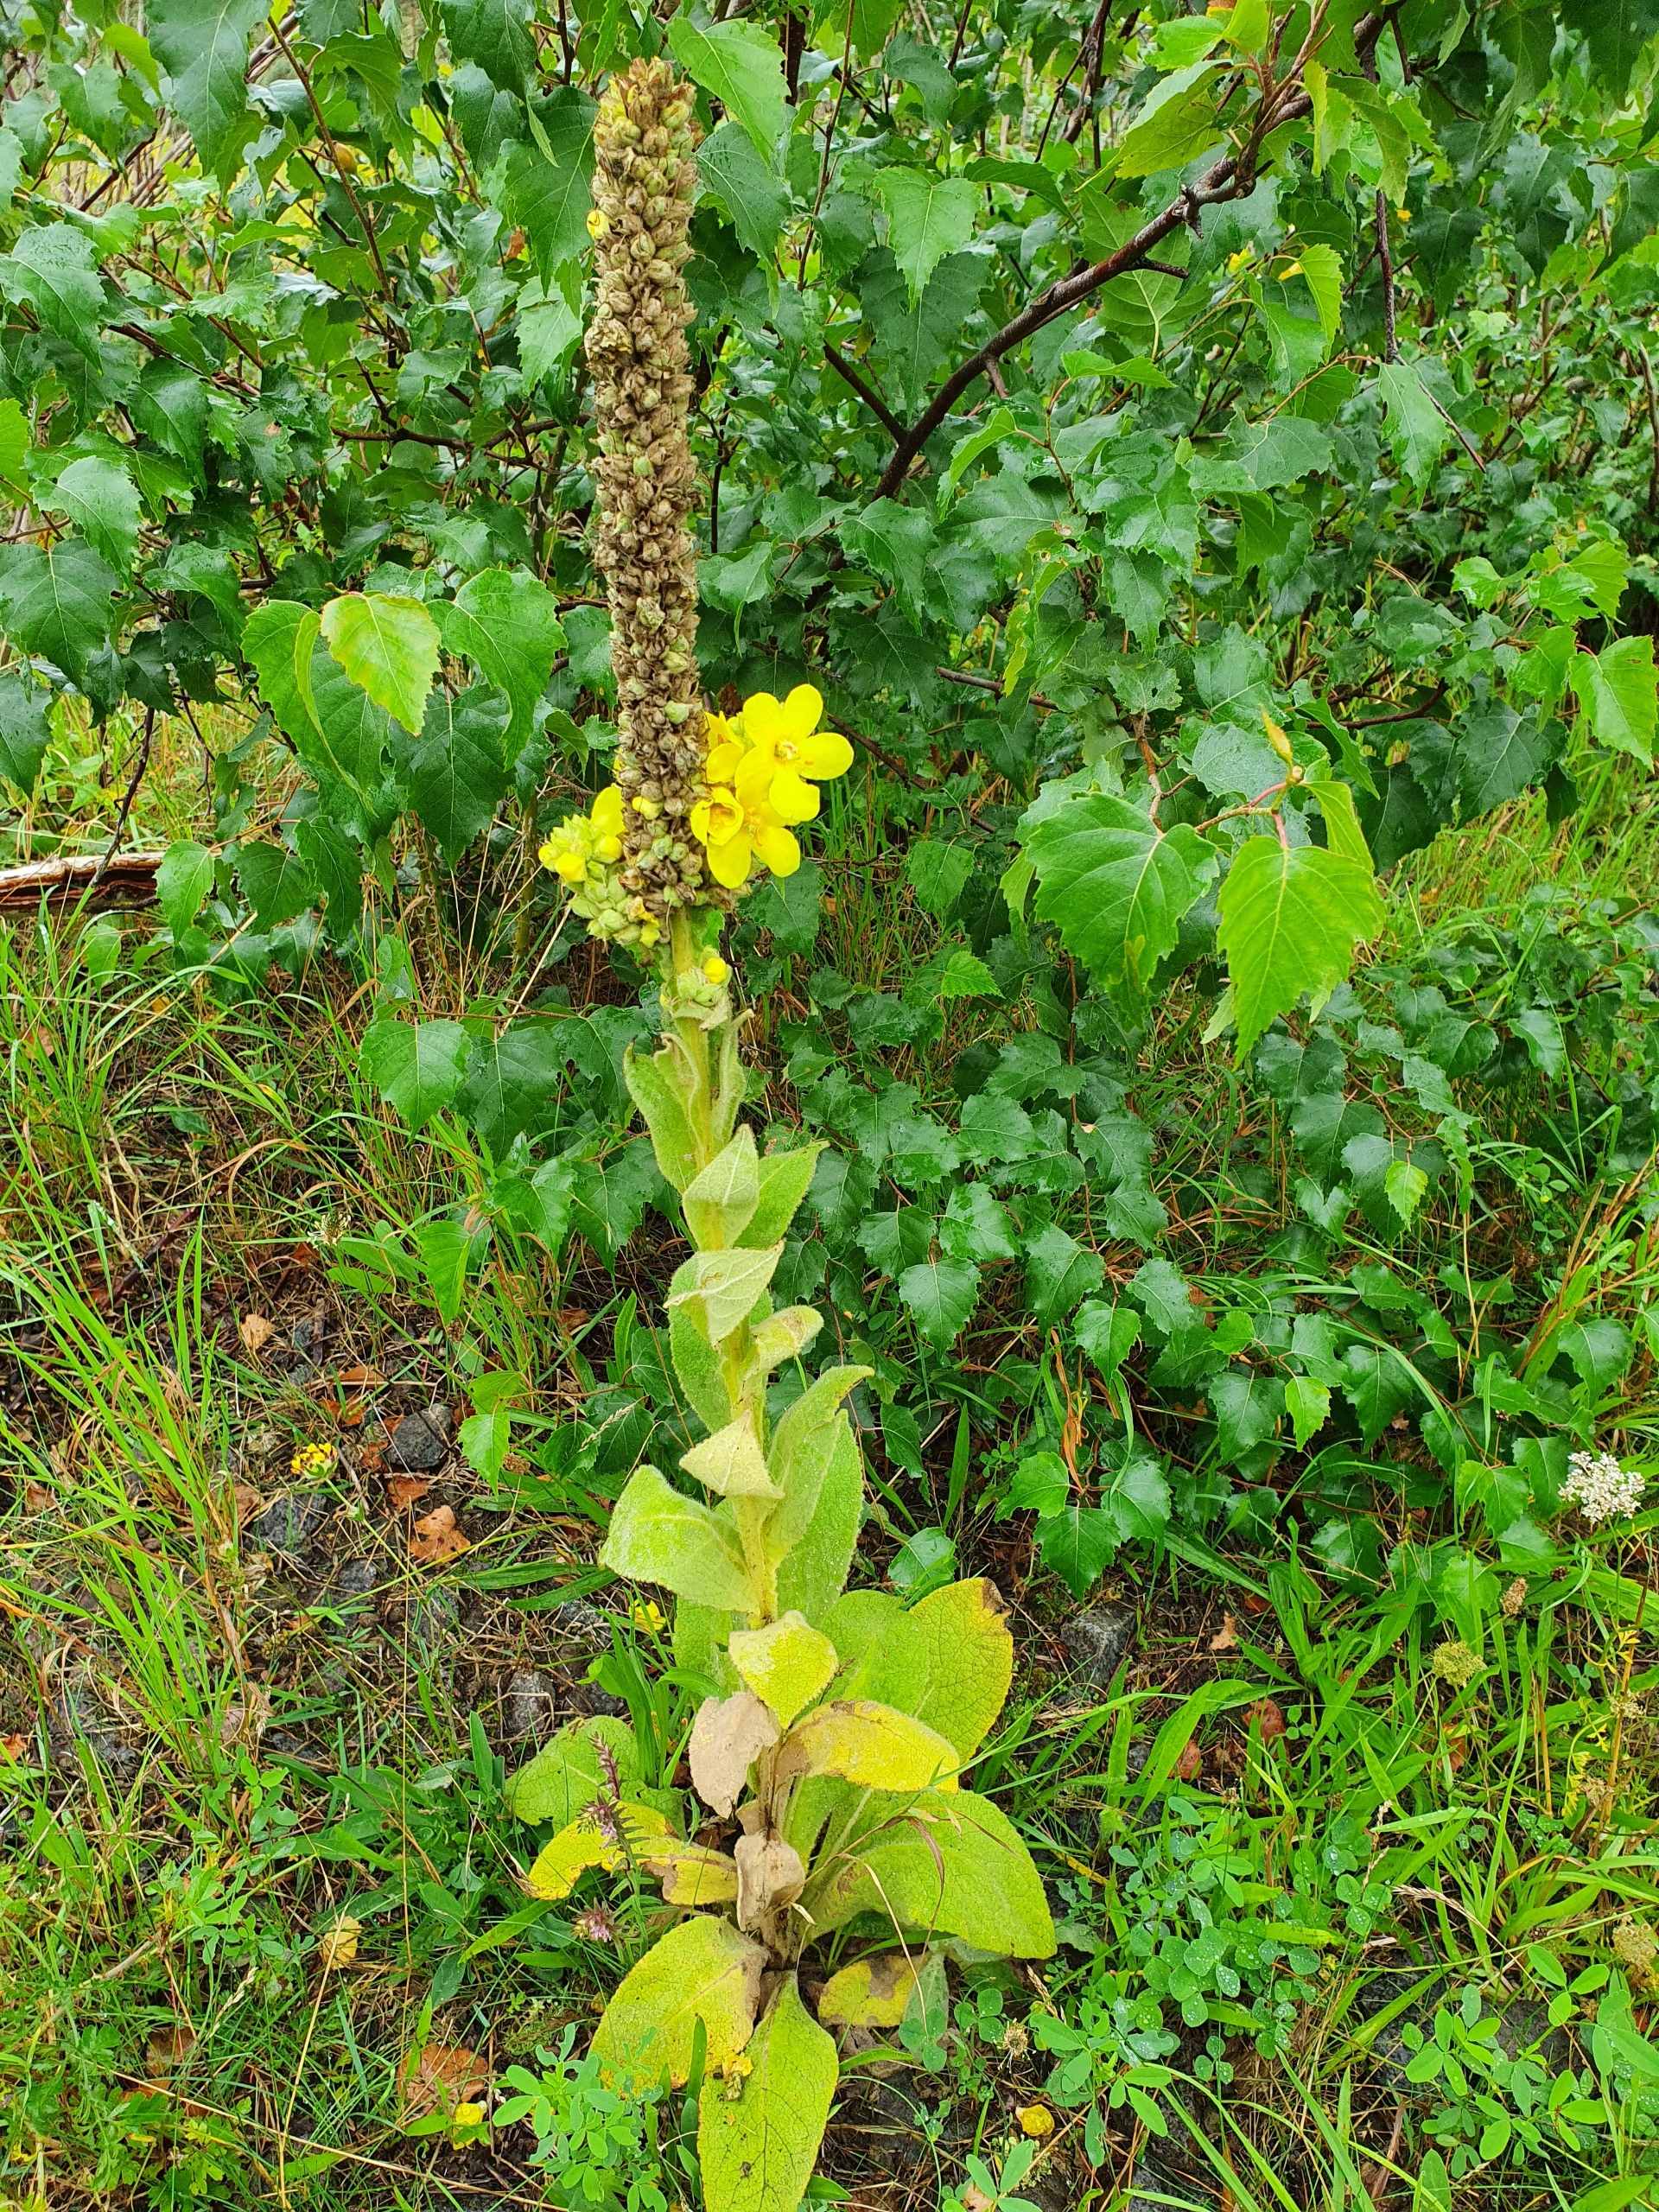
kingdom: Plantae
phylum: Tracheophyta
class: Magnoliopsida
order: Lamiales
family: Scrophulariaceae
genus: Verbascum
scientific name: Verbascum densiflorum
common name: Uldbladet kongelys
